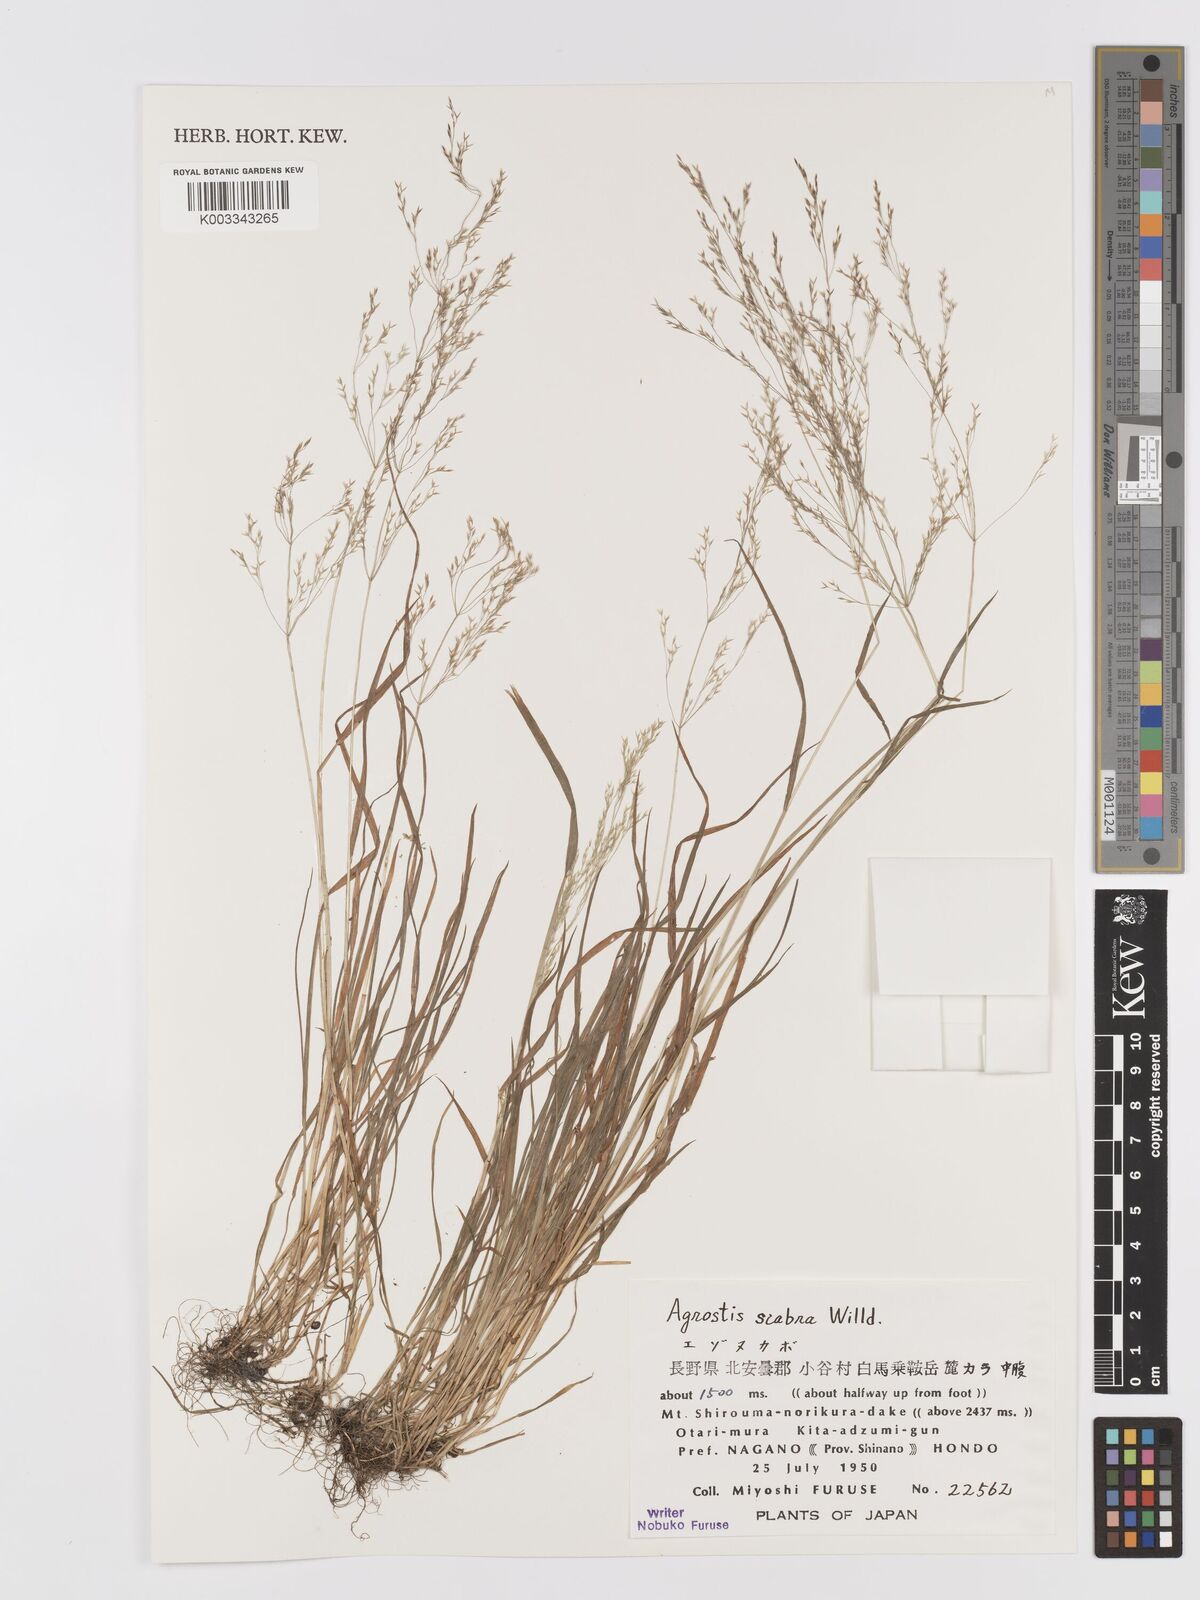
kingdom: Plantae
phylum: Tracheophyta
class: Liliopsida
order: Poales
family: Poaceae
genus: Agrostis
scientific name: Agrostis scabra
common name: Rough bent
